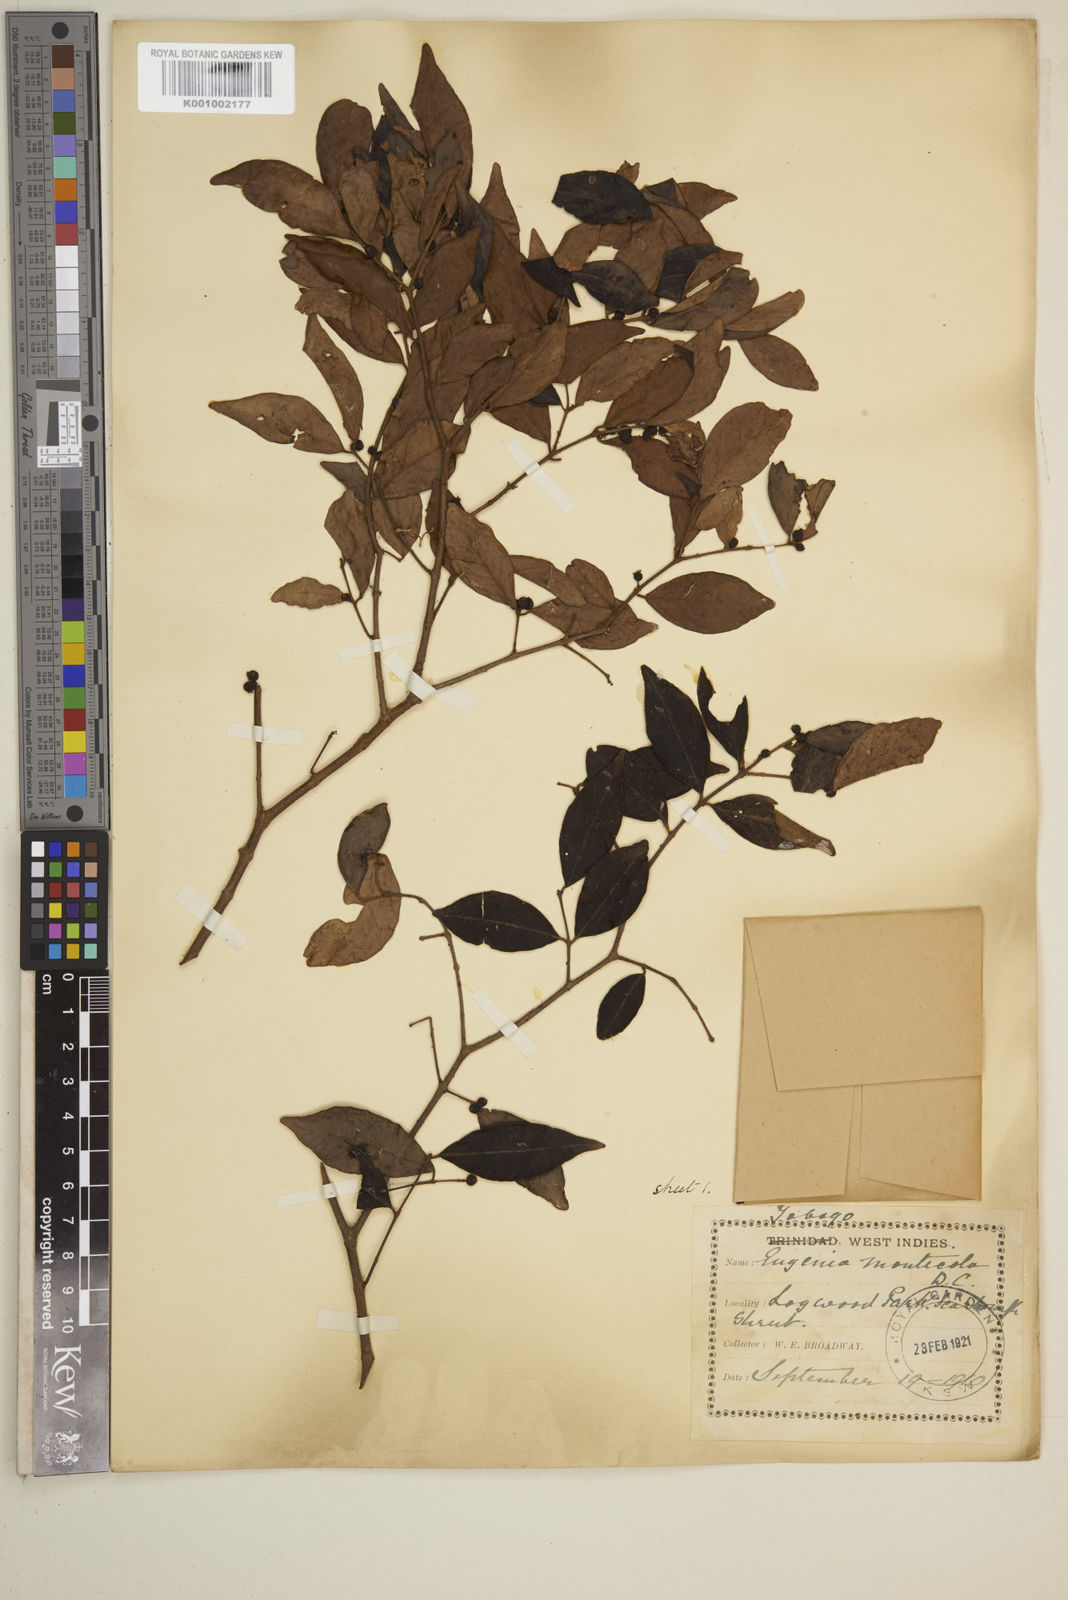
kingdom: Plantae
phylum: Tracheophyta
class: Magnoliopsida
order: Myrtales
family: Myrtaceae
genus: Eugenia
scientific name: Eugenia monticola
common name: Birds berry
